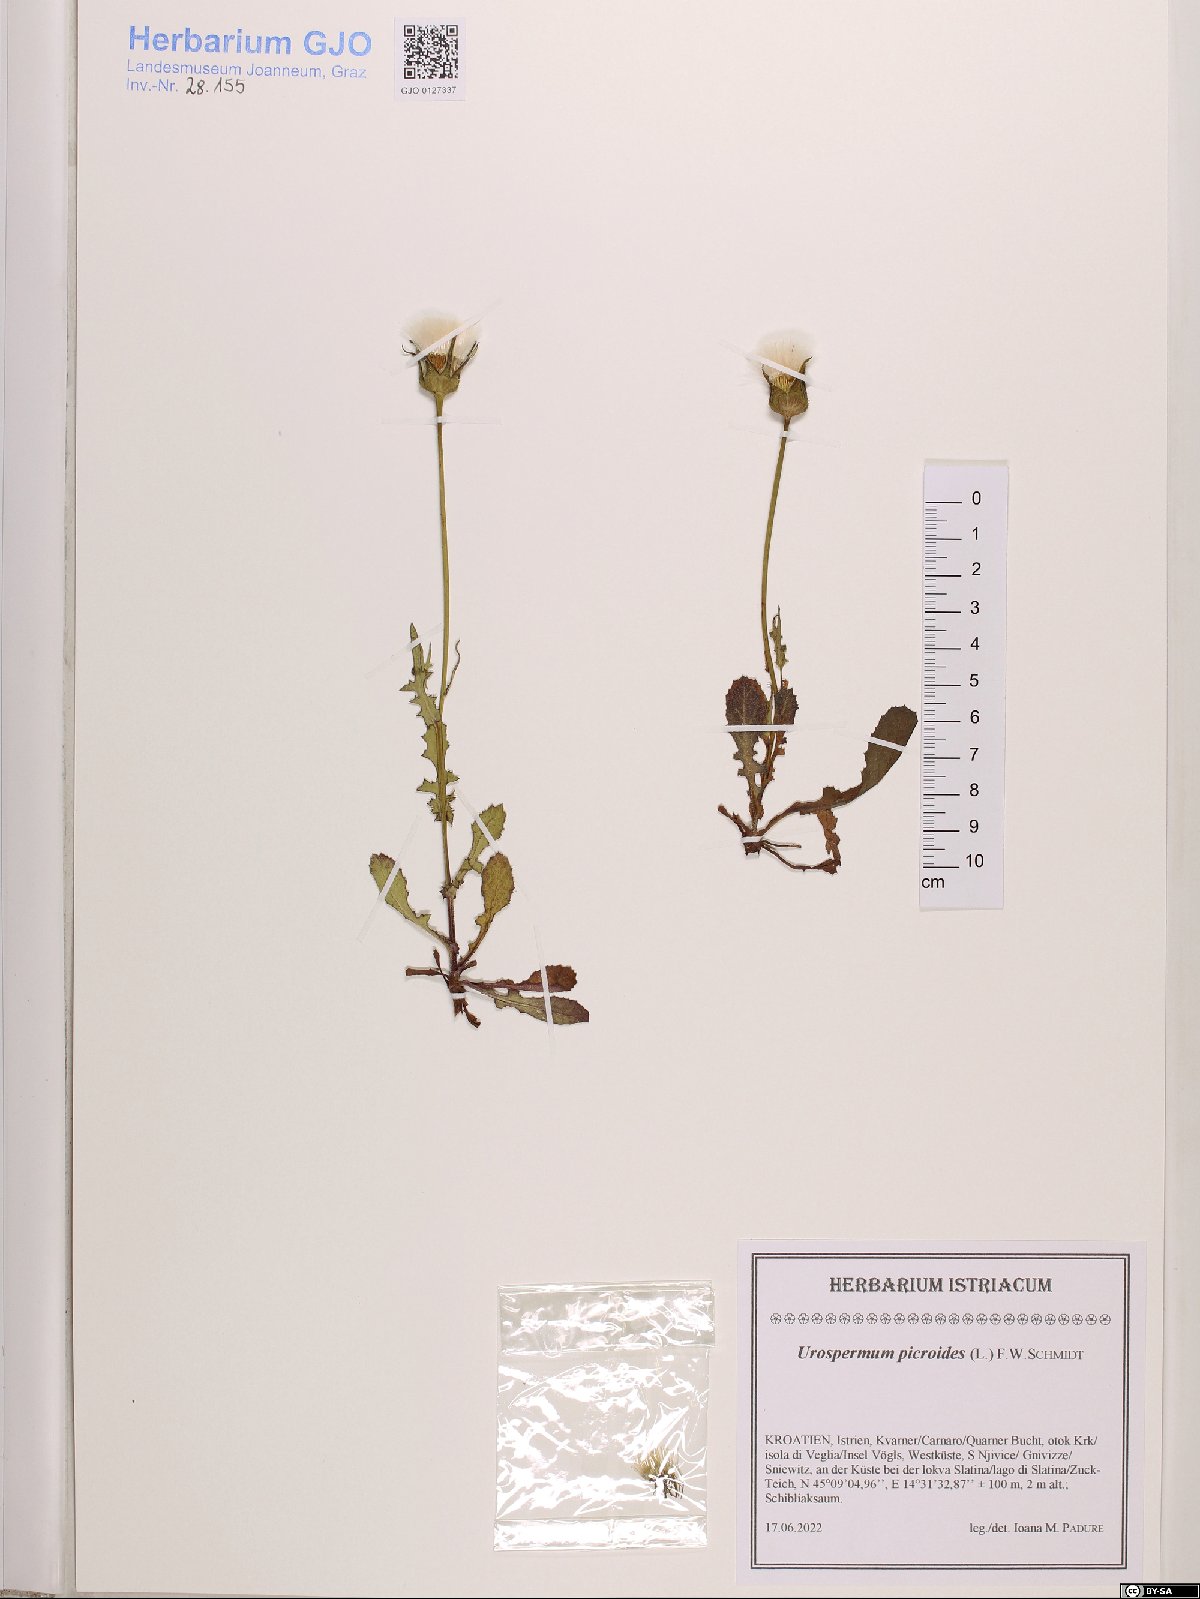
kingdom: Plantae
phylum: Tracheophyta
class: Magnoliopsida
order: Asterales
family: Asteraceae
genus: Urospermum
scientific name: Urospermum picroides
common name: False hawkbit
